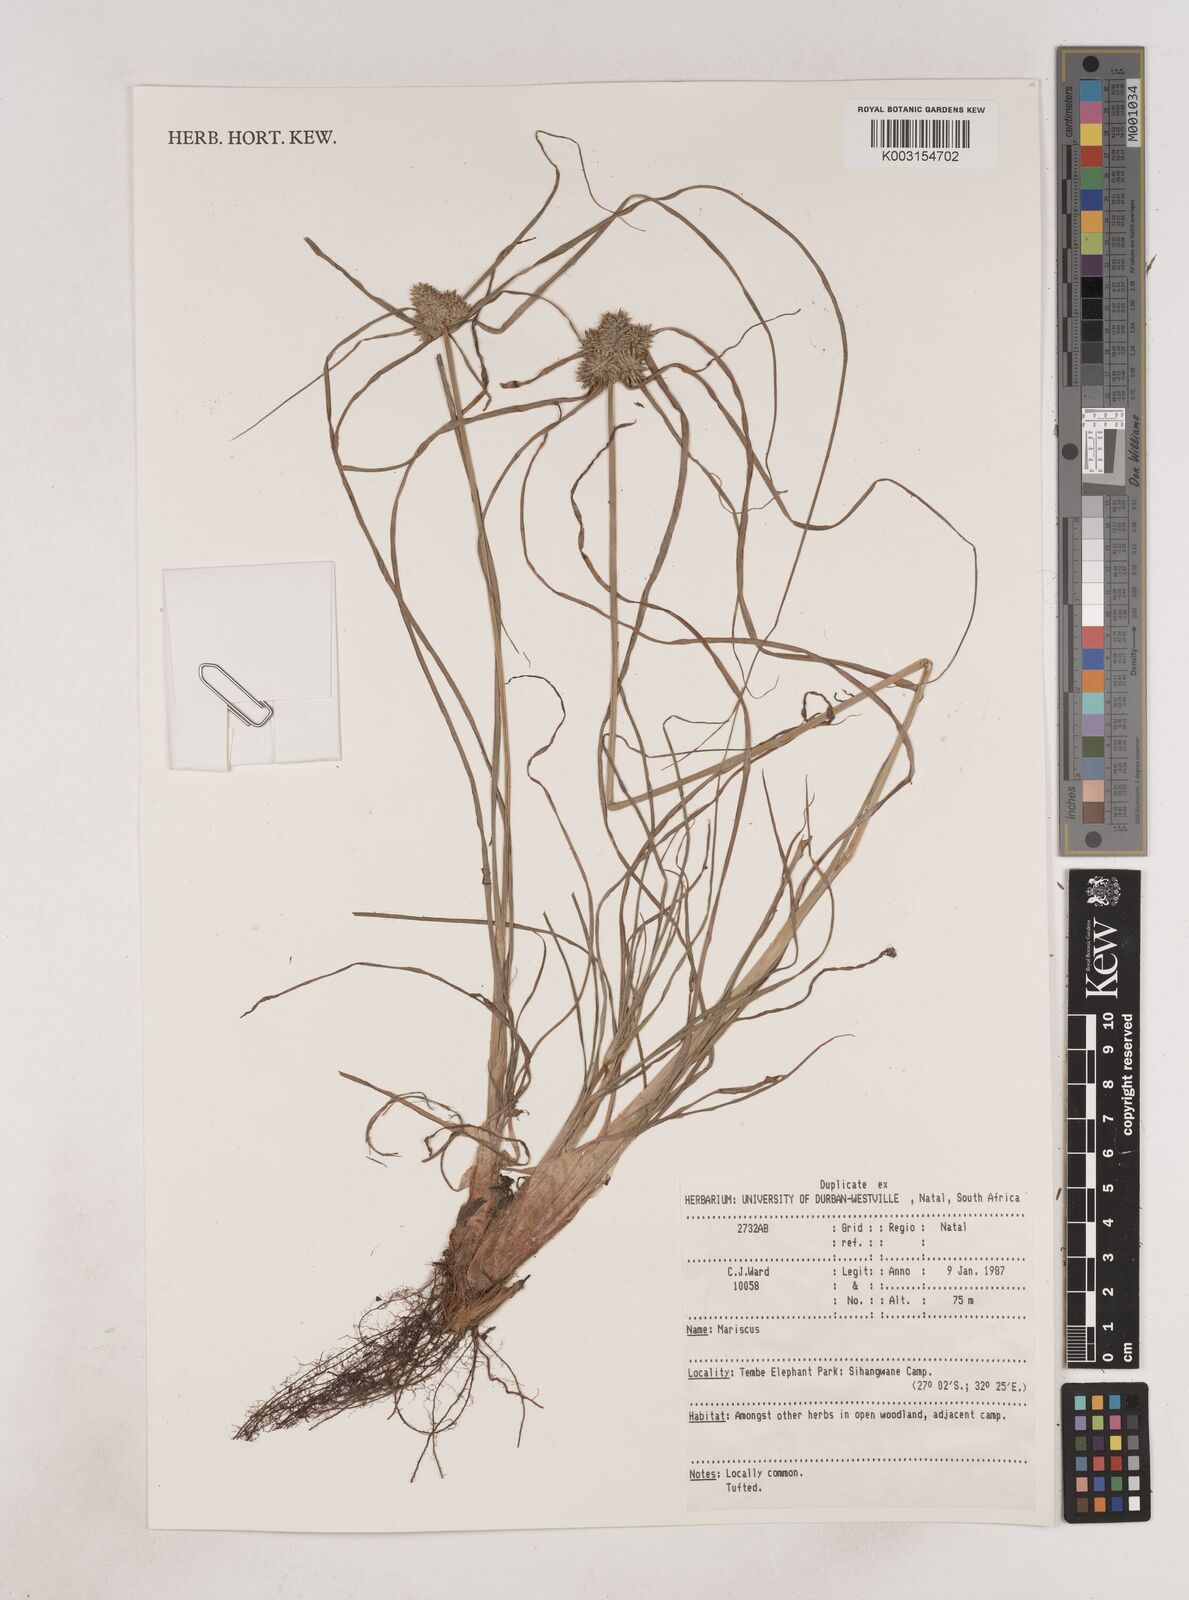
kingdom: Plantae
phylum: Tracheophyta
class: Liliopsida
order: Poales
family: Cyperaceae
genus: Cyperus
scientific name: Cyperus
